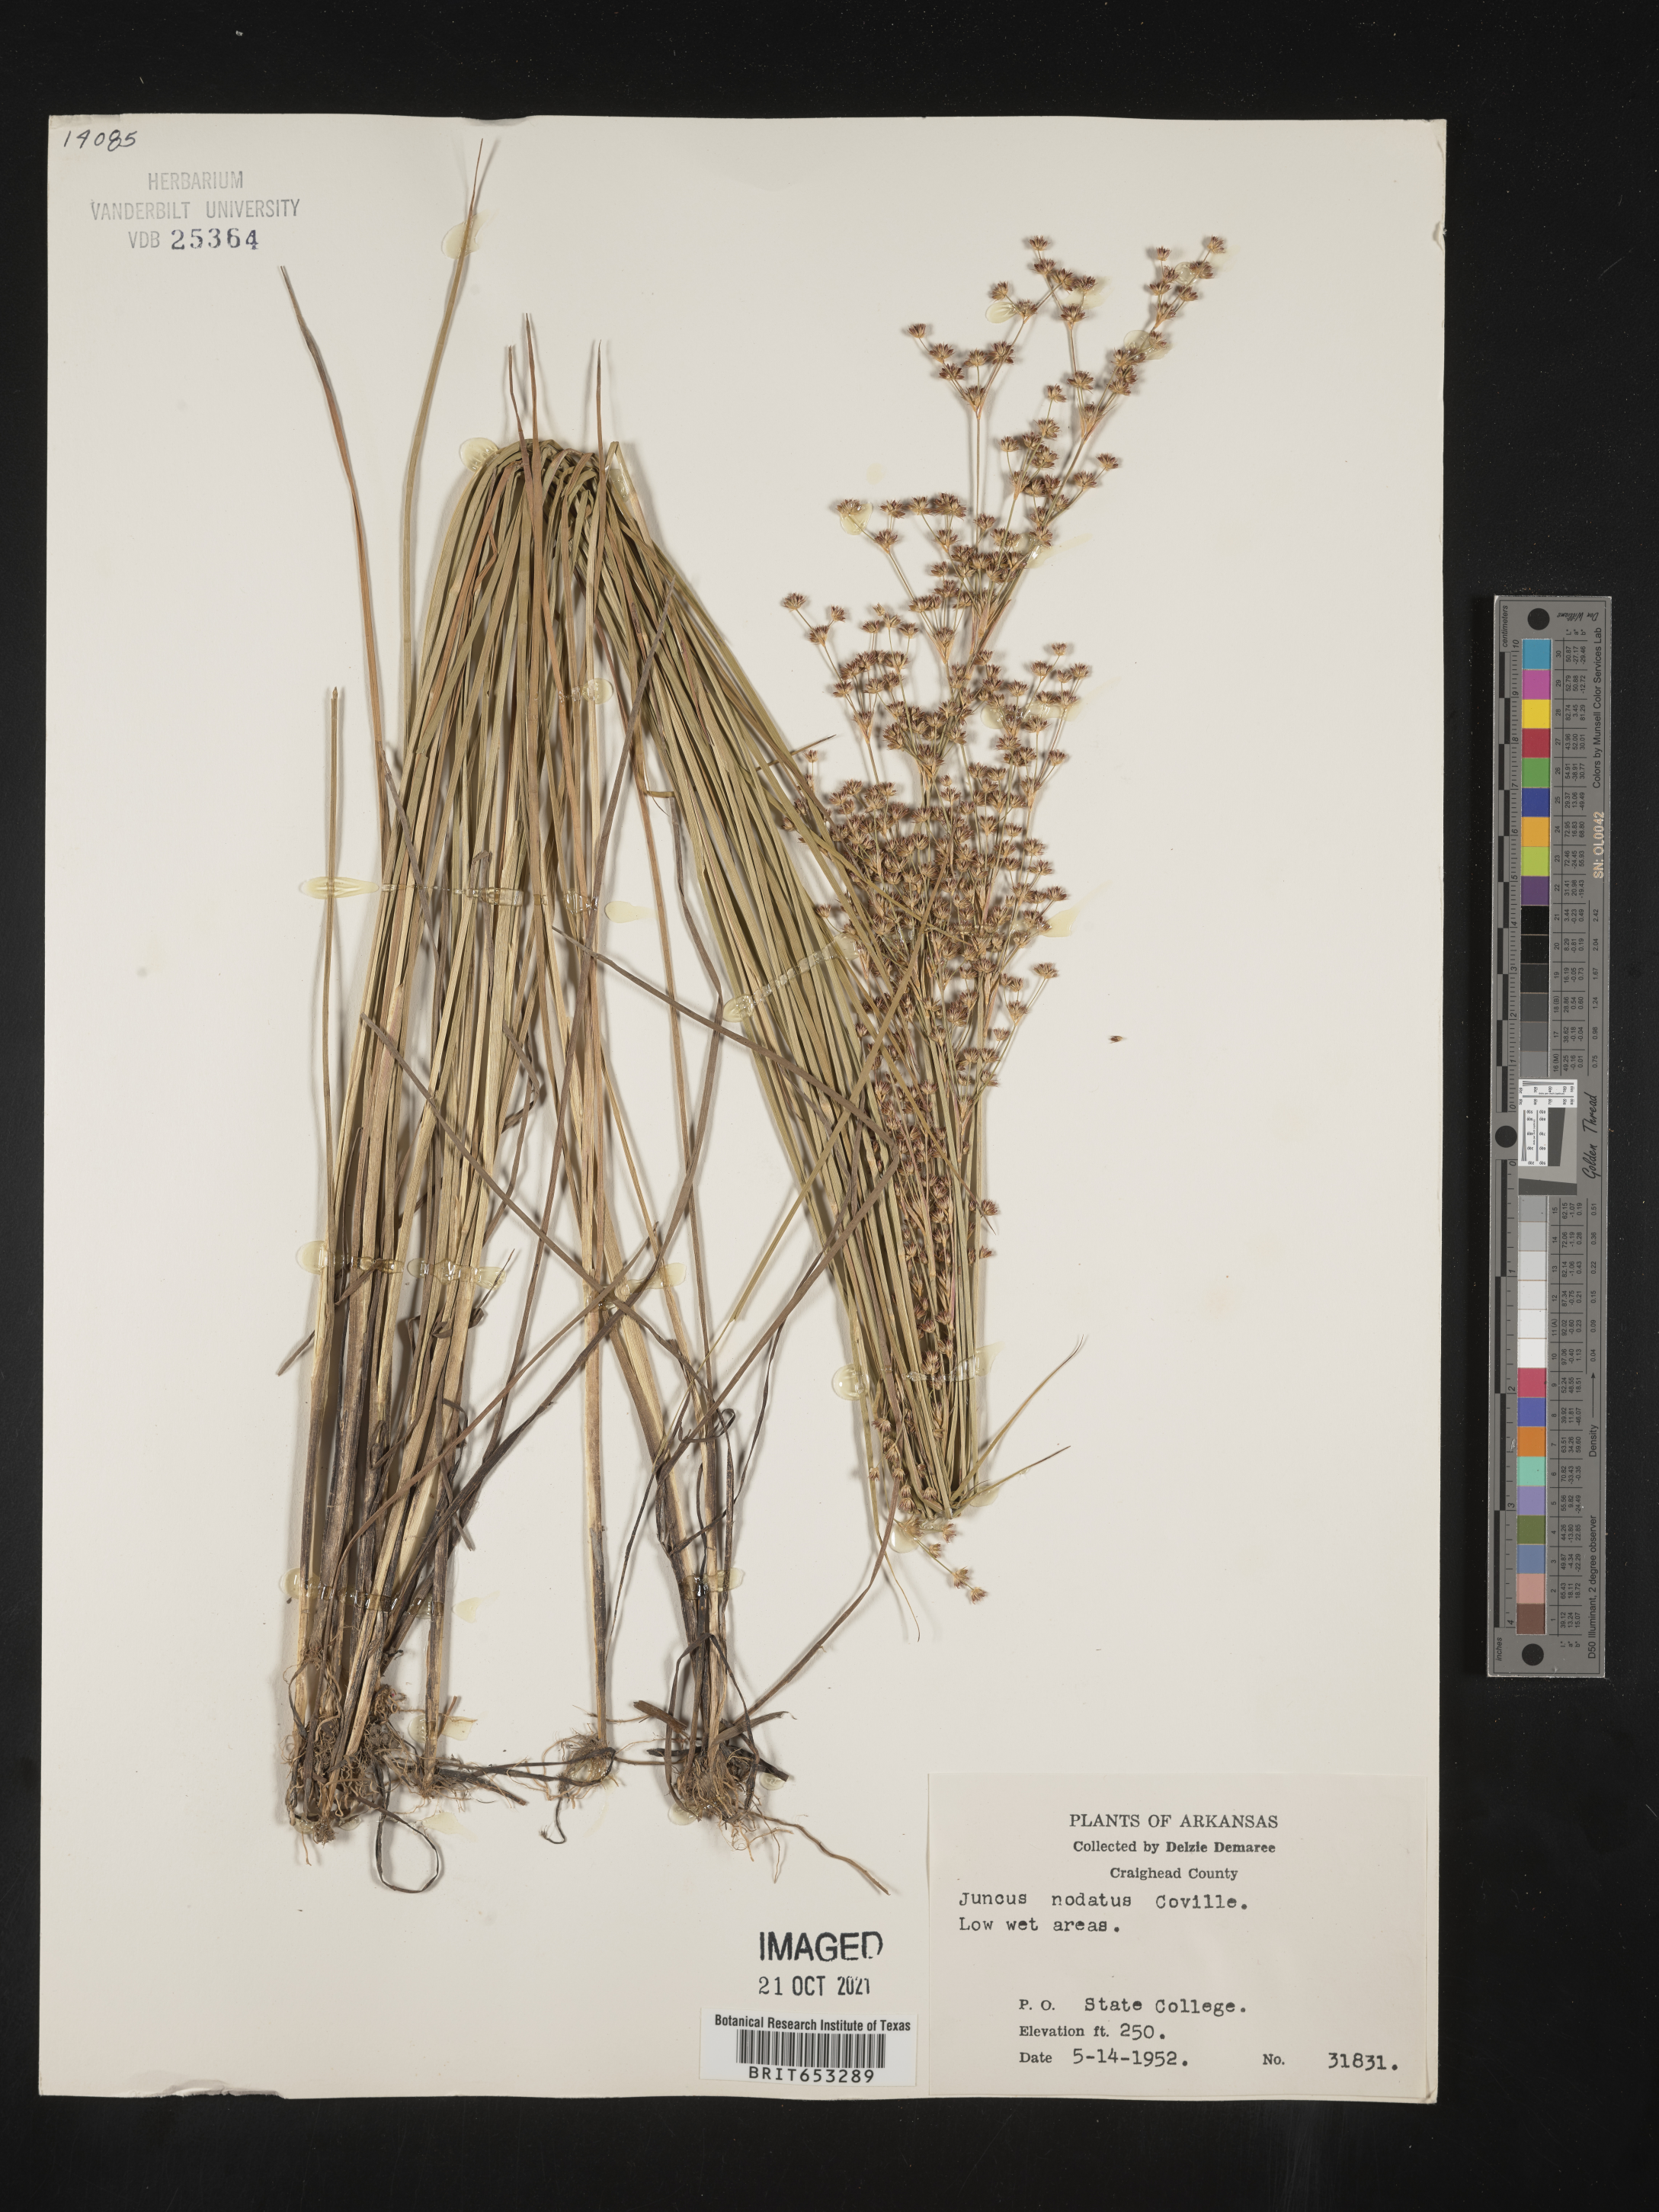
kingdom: Plantae
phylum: Tracheophyta
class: Liliopsida
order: Poales
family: Juncaceae
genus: Juncus
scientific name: Juncus nodatus
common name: Stout rush
